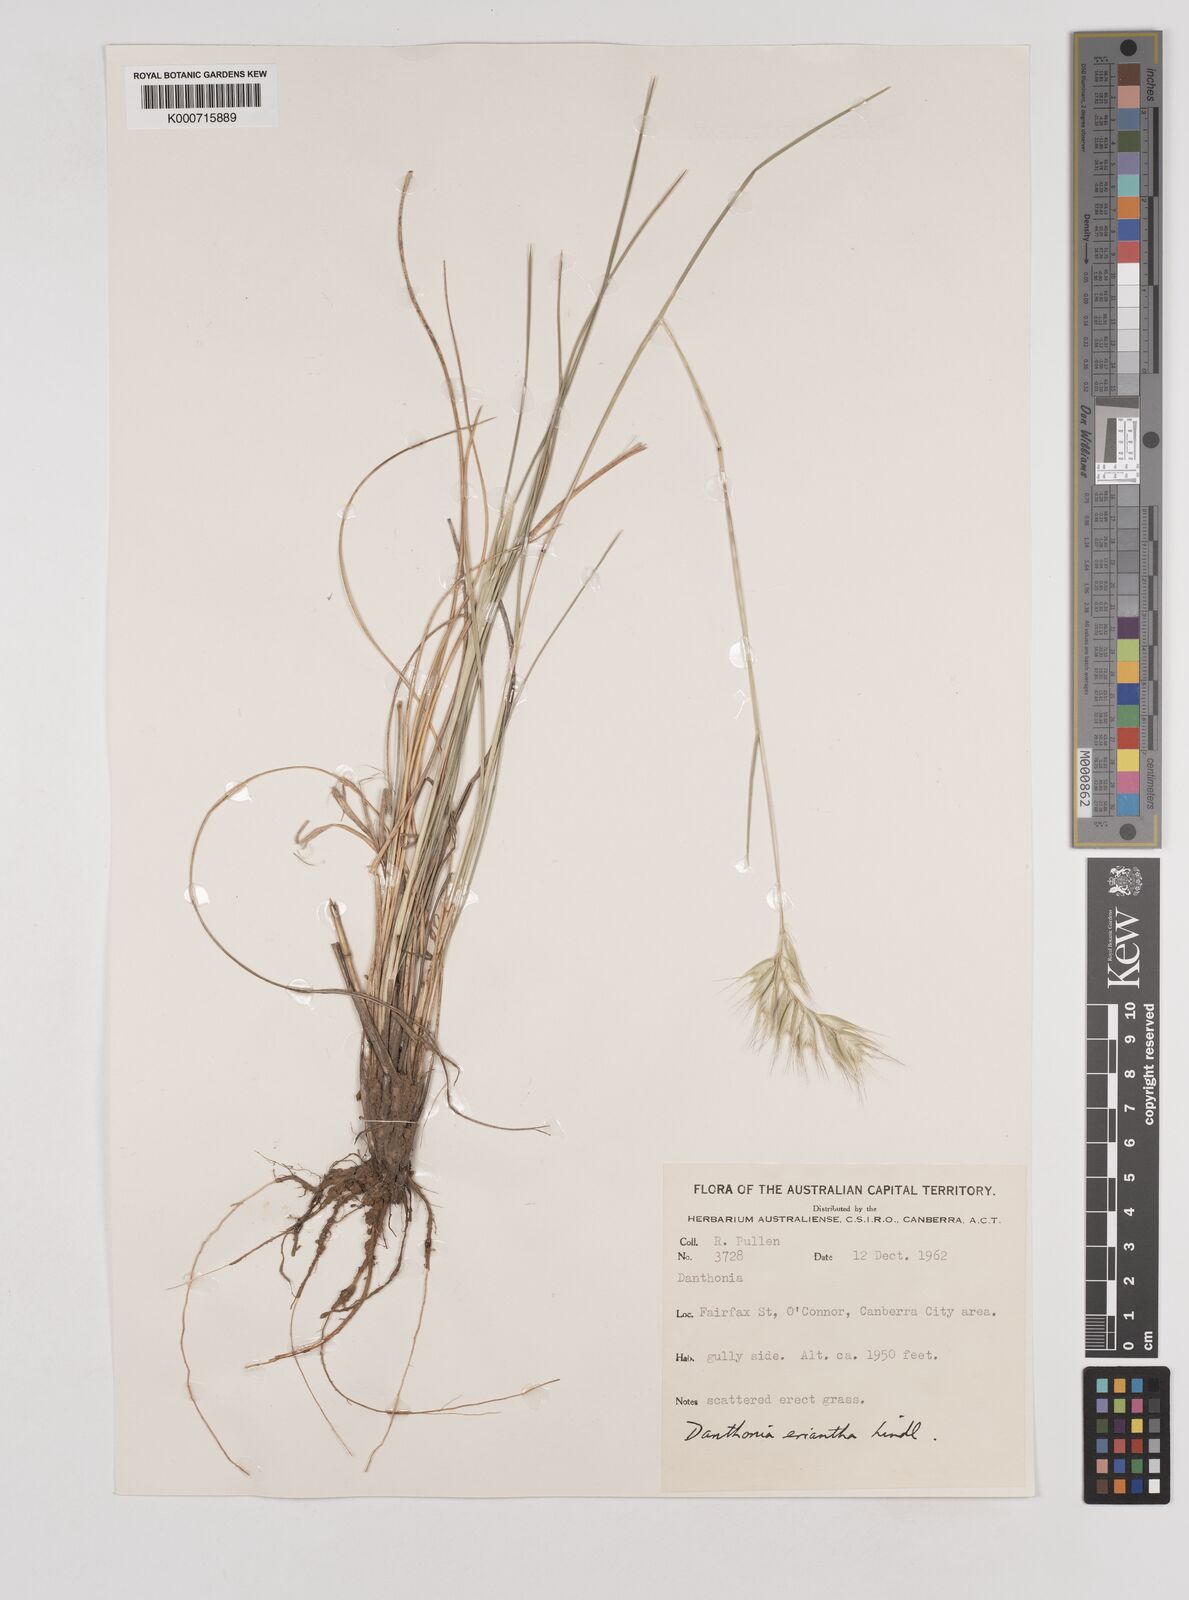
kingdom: Plantae
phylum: Tracheophyta
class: Liliopsida
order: Poales
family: Poaceae
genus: Rytidosperma
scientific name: Rytidosperma erianthum
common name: Hill wallaby grass
